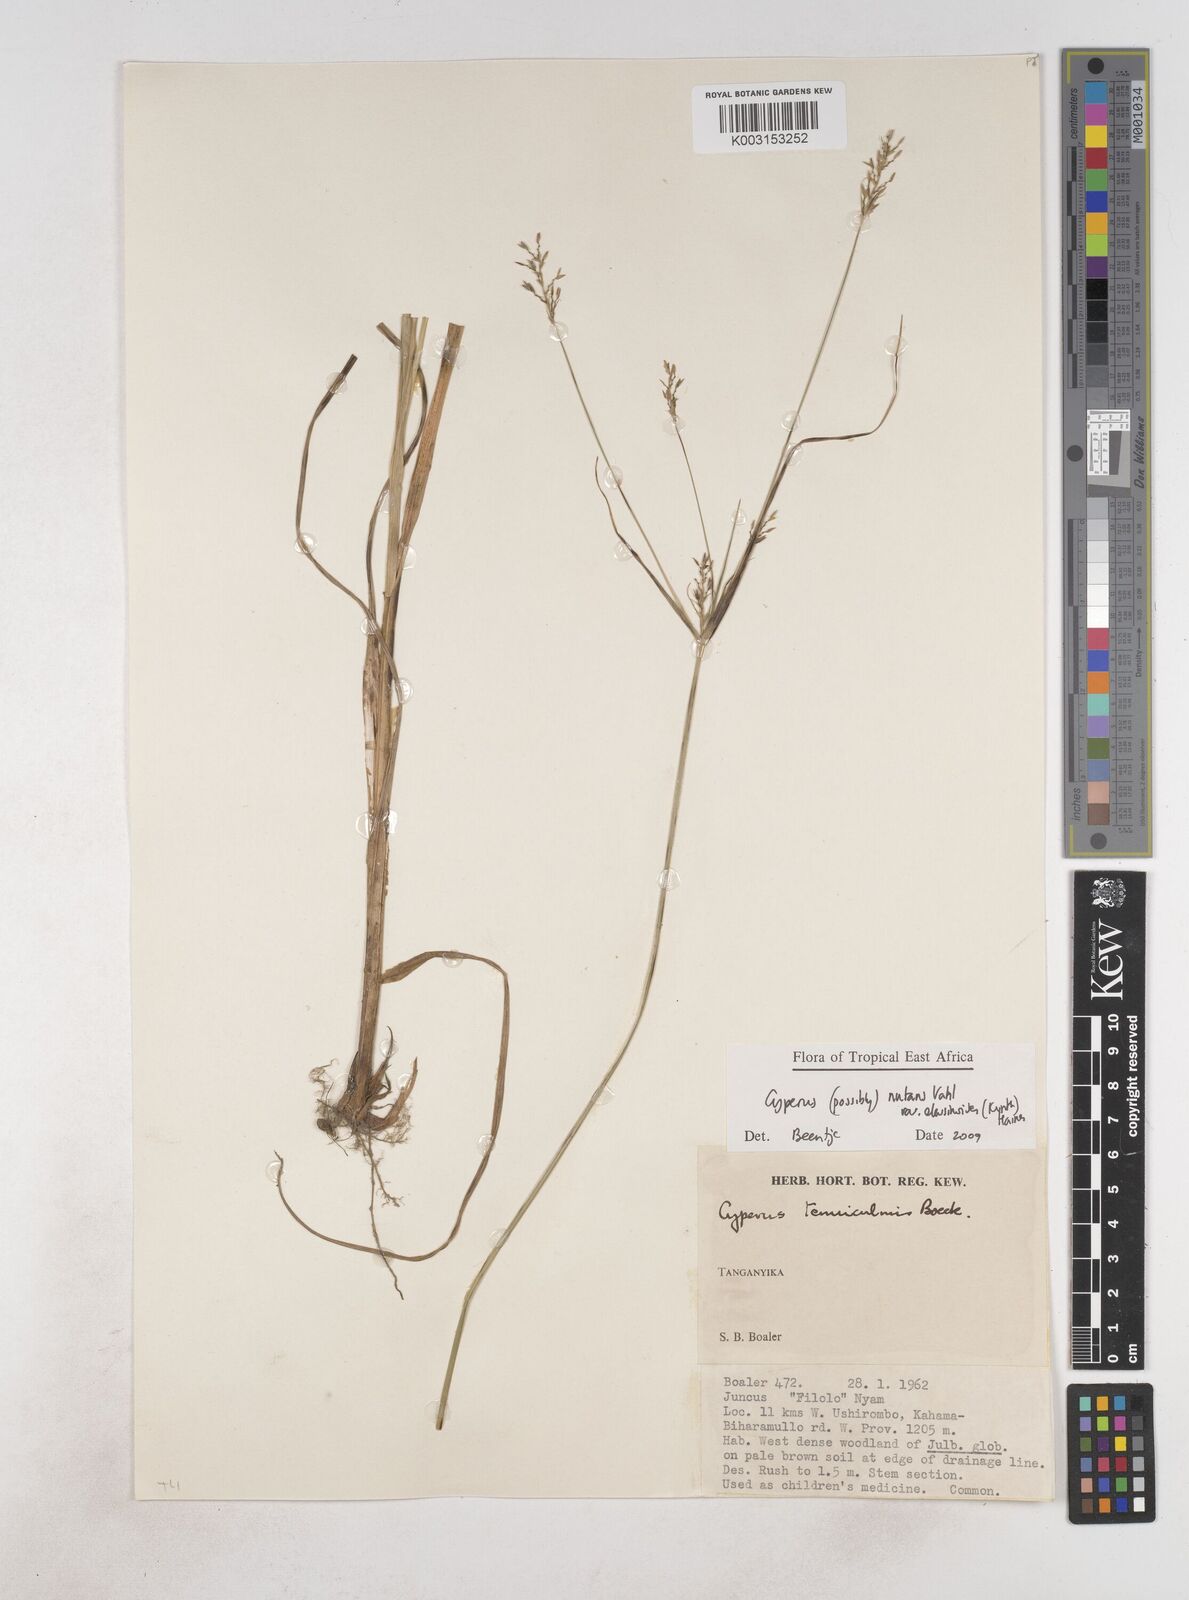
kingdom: Plantae
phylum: Tracheophyta
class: Liliopsida
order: Poales
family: Cyperaceae
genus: Cyperus
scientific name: Cyperus nutans
